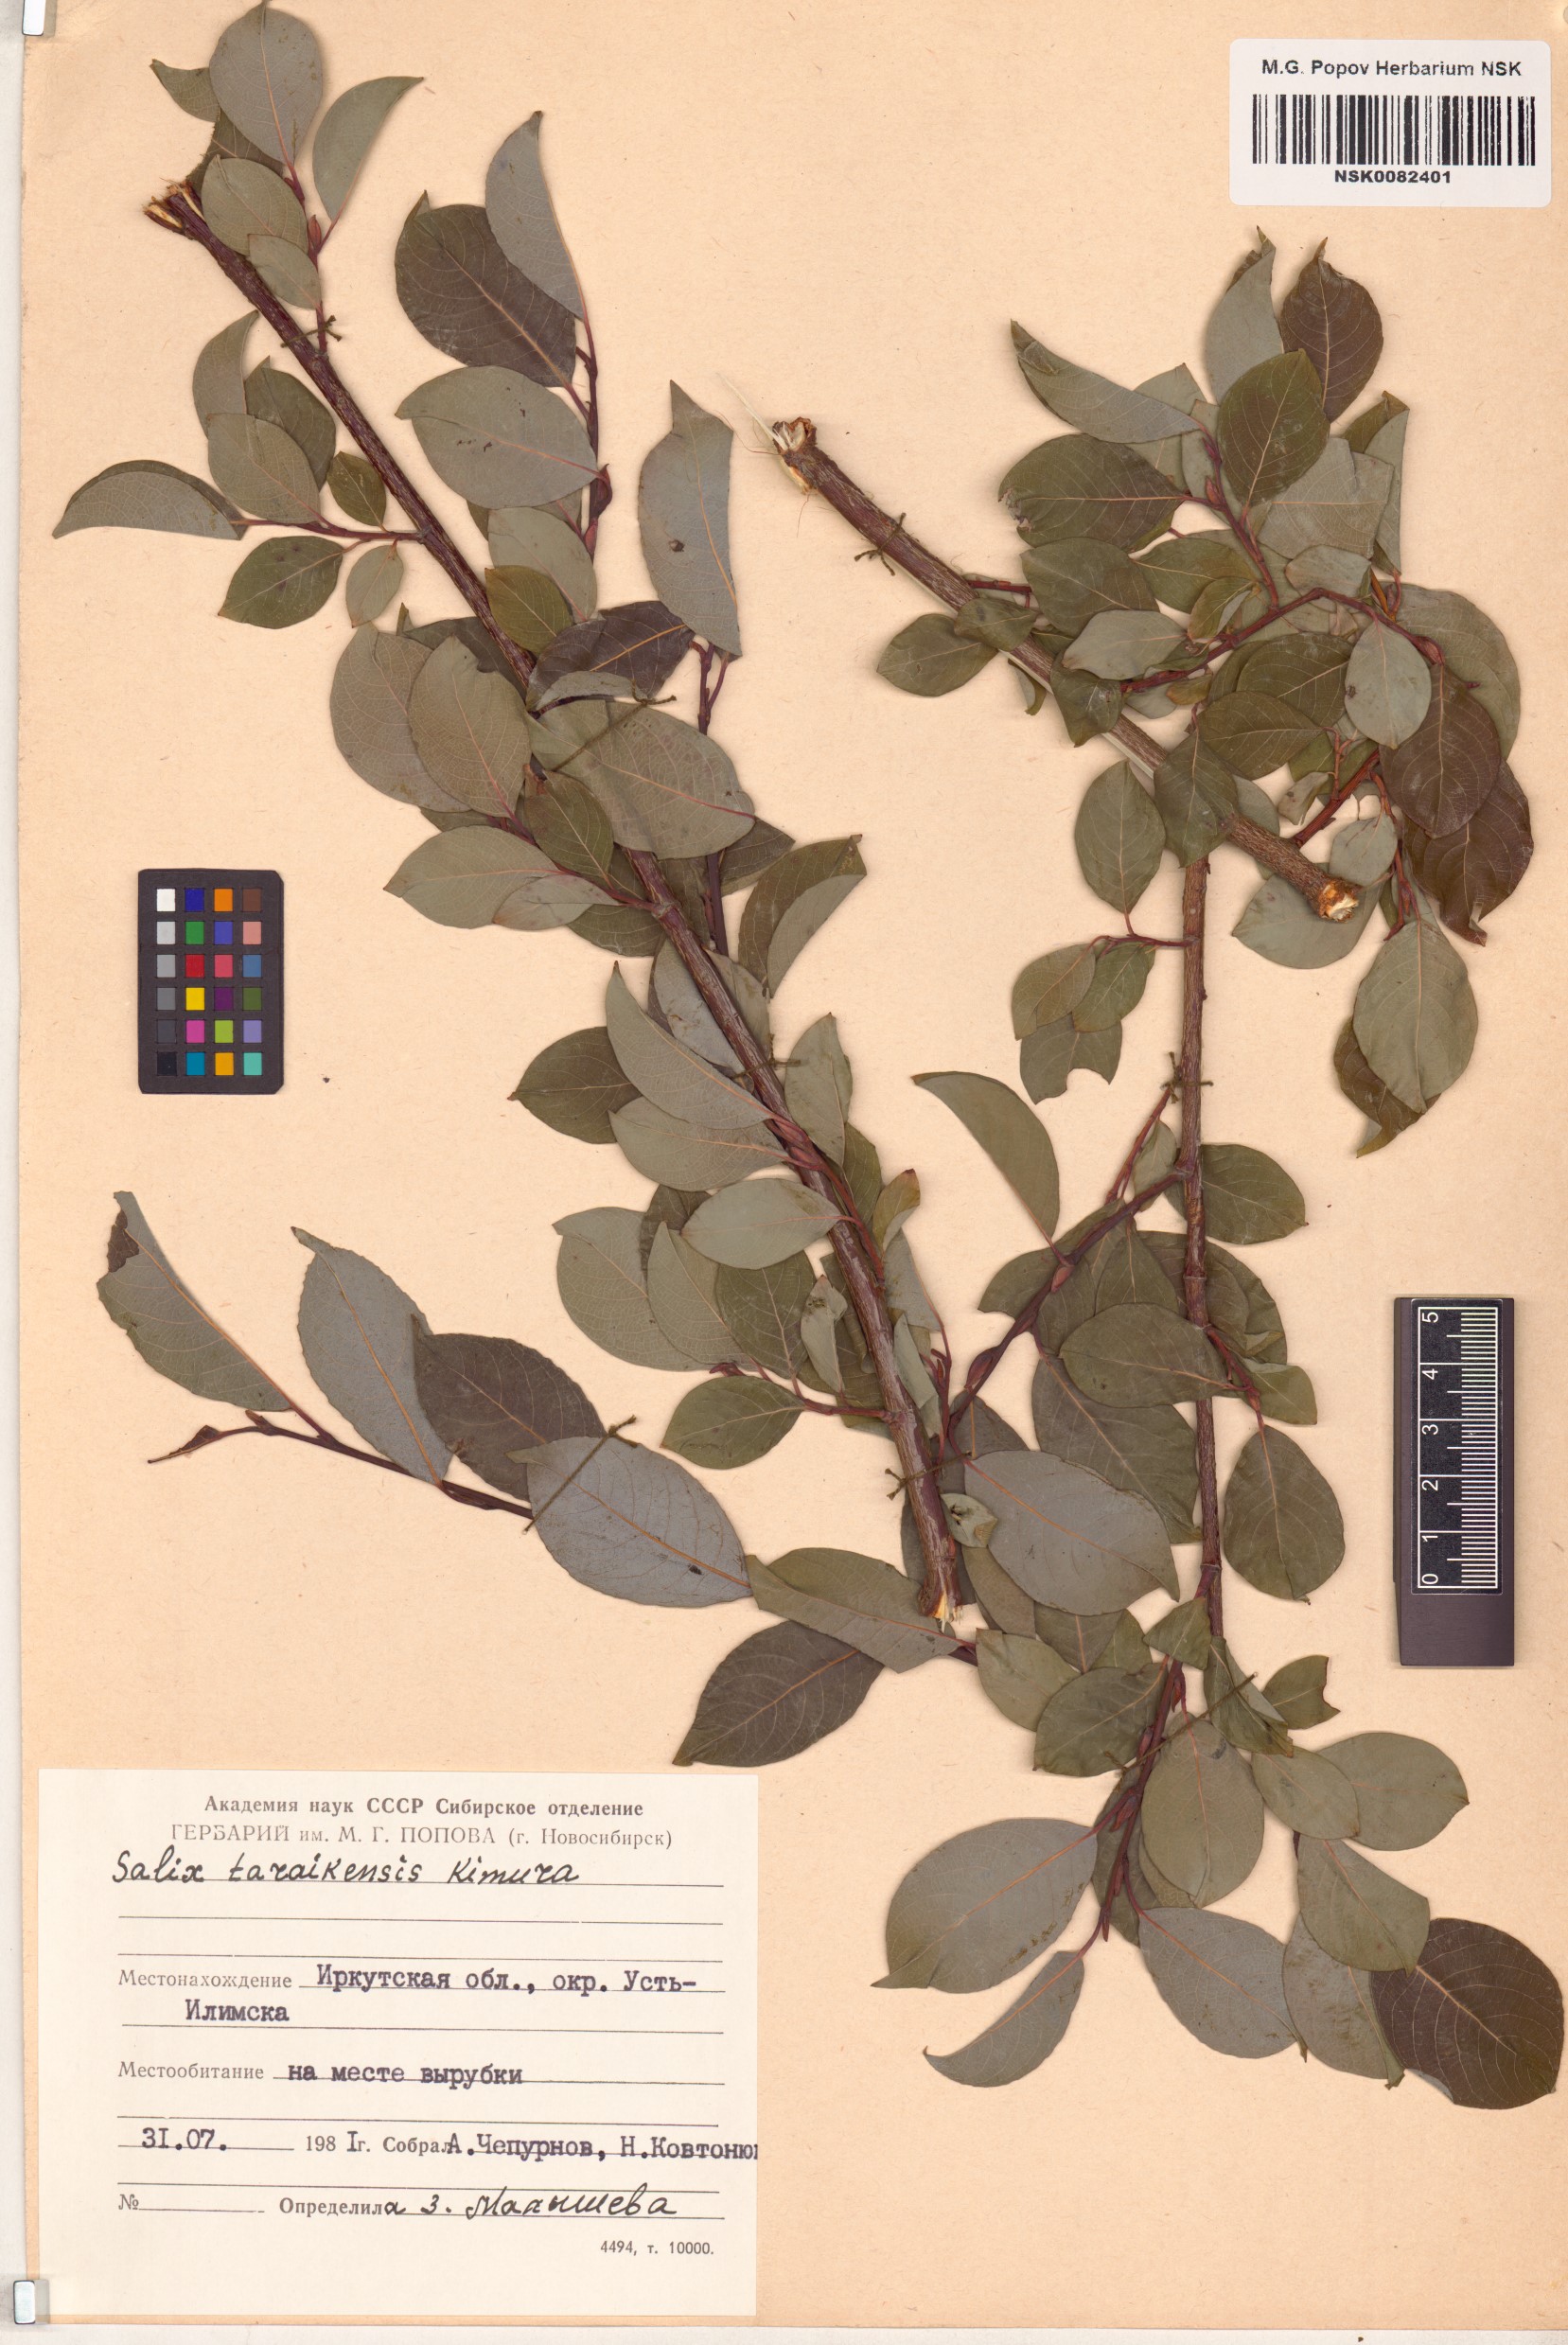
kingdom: Plantae
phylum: Tracheophyta
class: Magnoliopsida
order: Malpighiales
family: Salicaceae
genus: Salix
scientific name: Salix taraikensis
